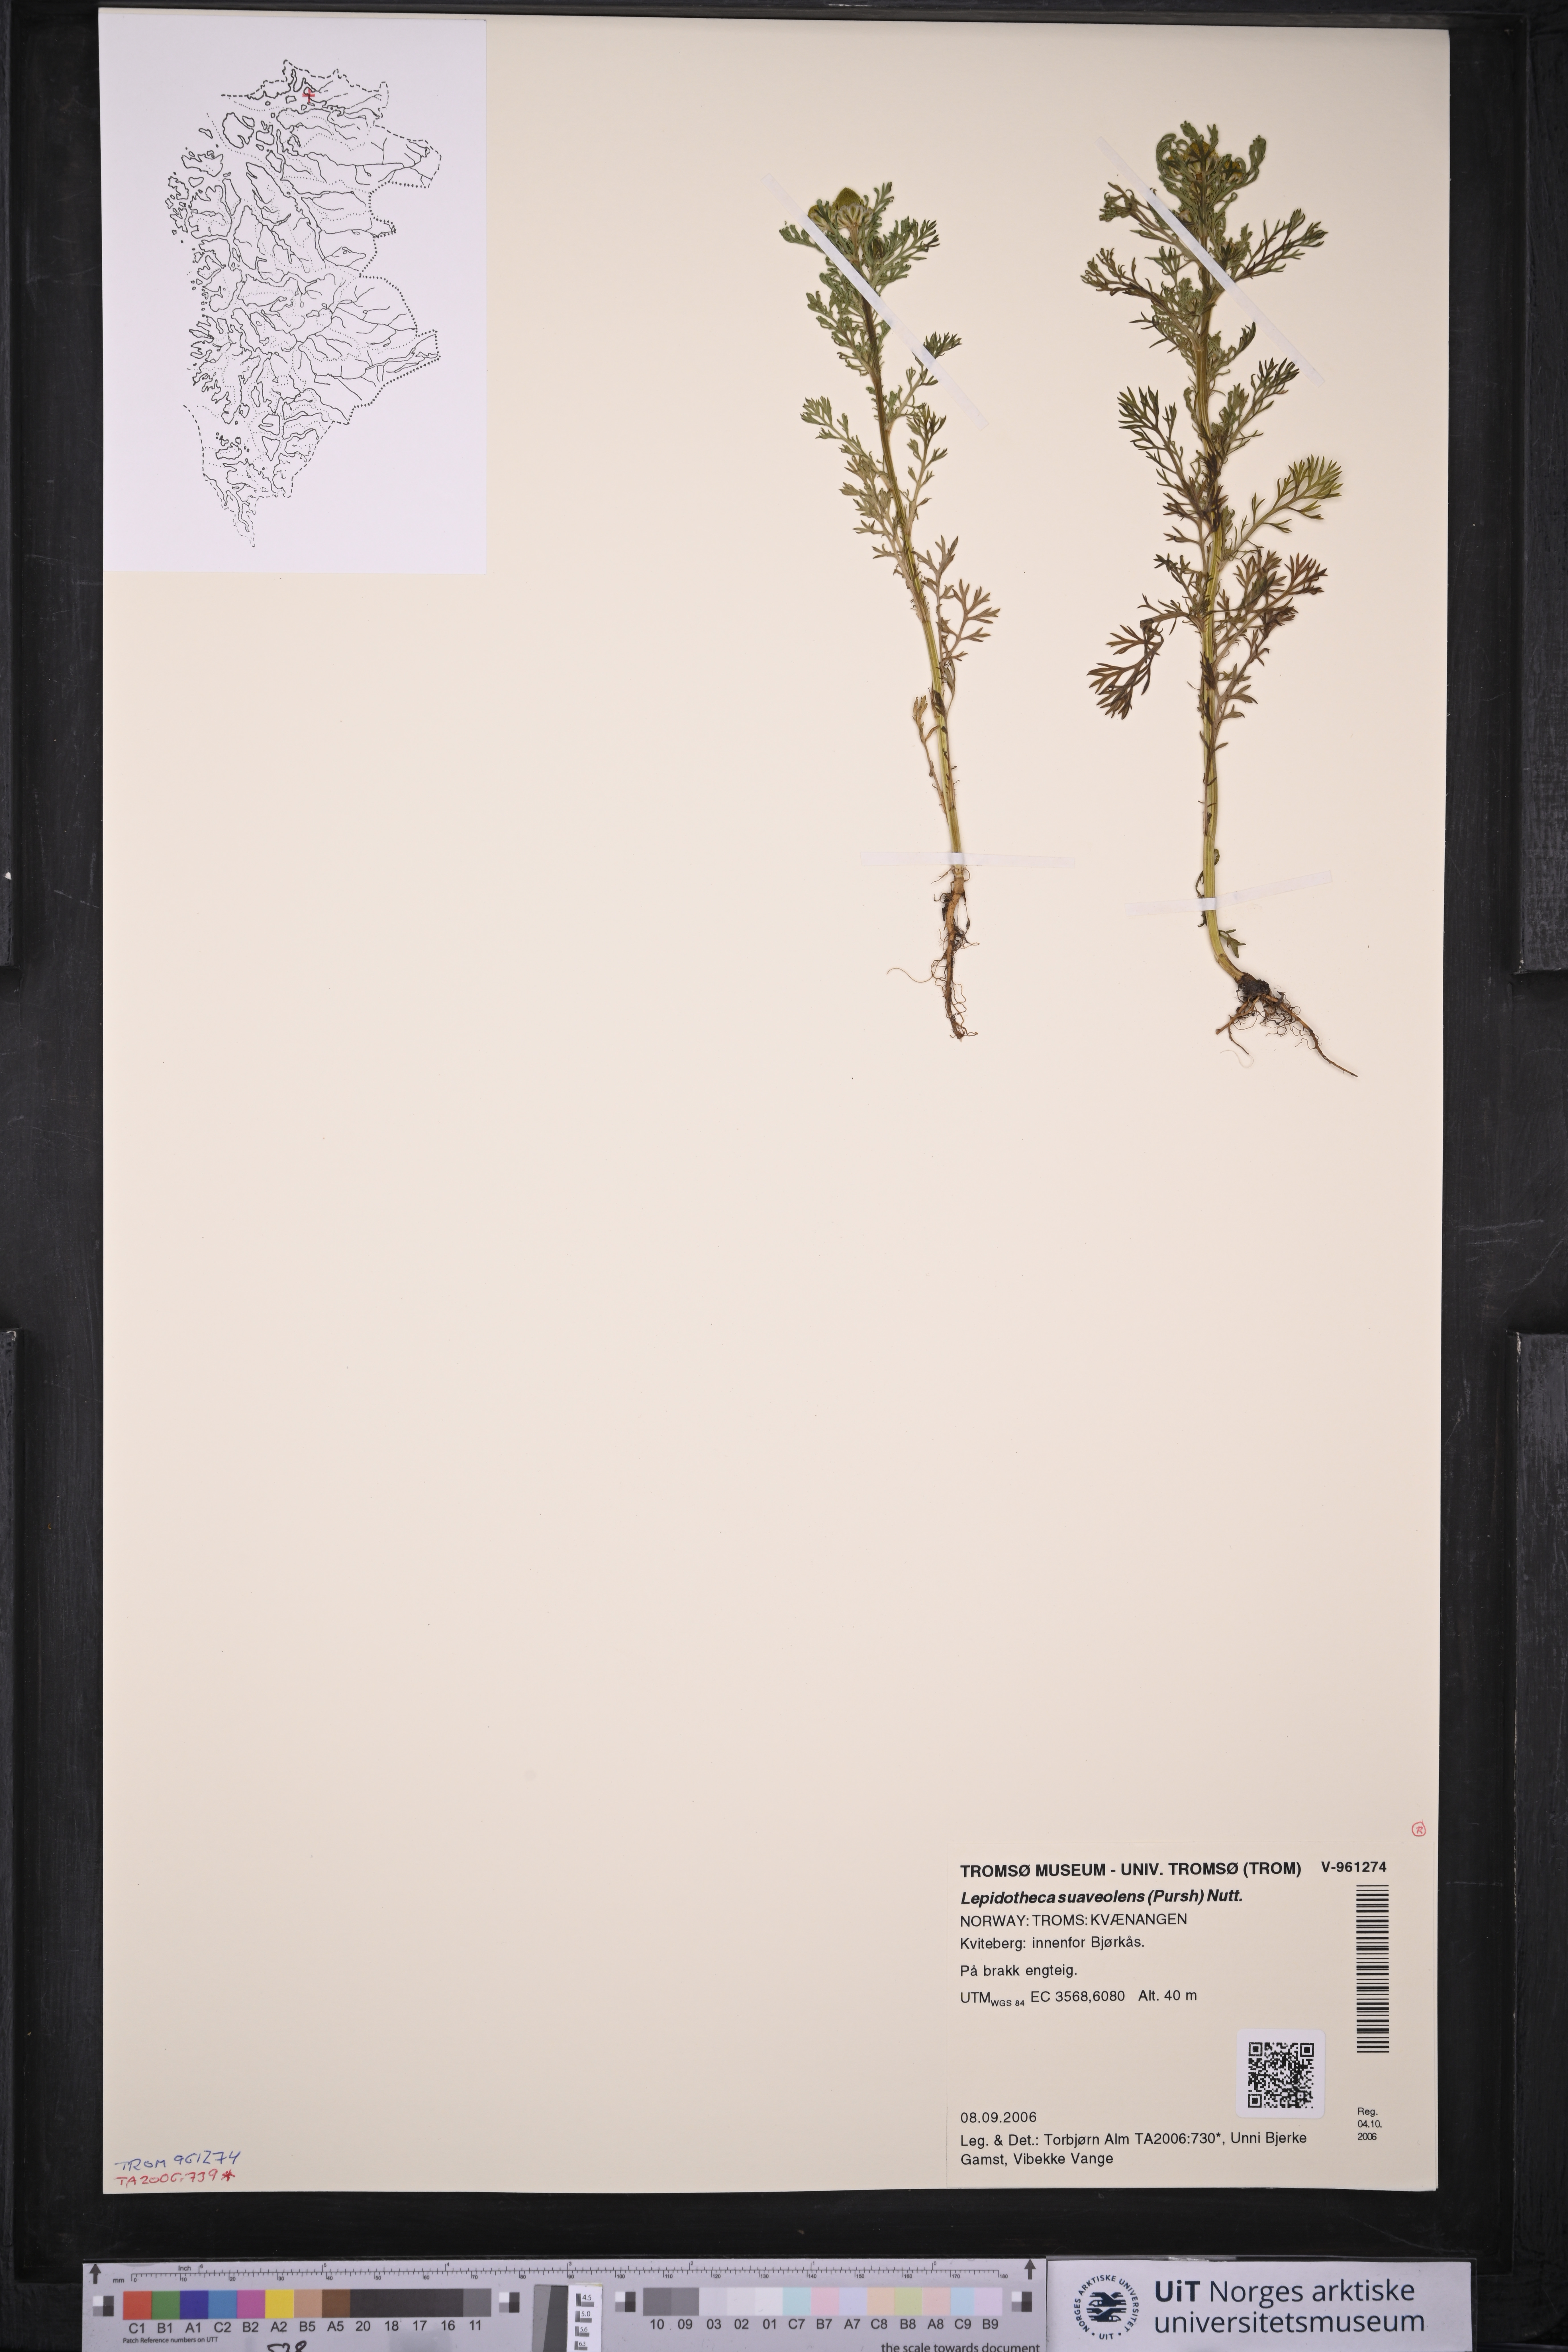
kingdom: Plantae
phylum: Tracheophyta
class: Magnoliopsida
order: Asterales
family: Asteraceae
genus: Matricaria
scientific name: Matricaria discoidea
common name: Disc mayweed
